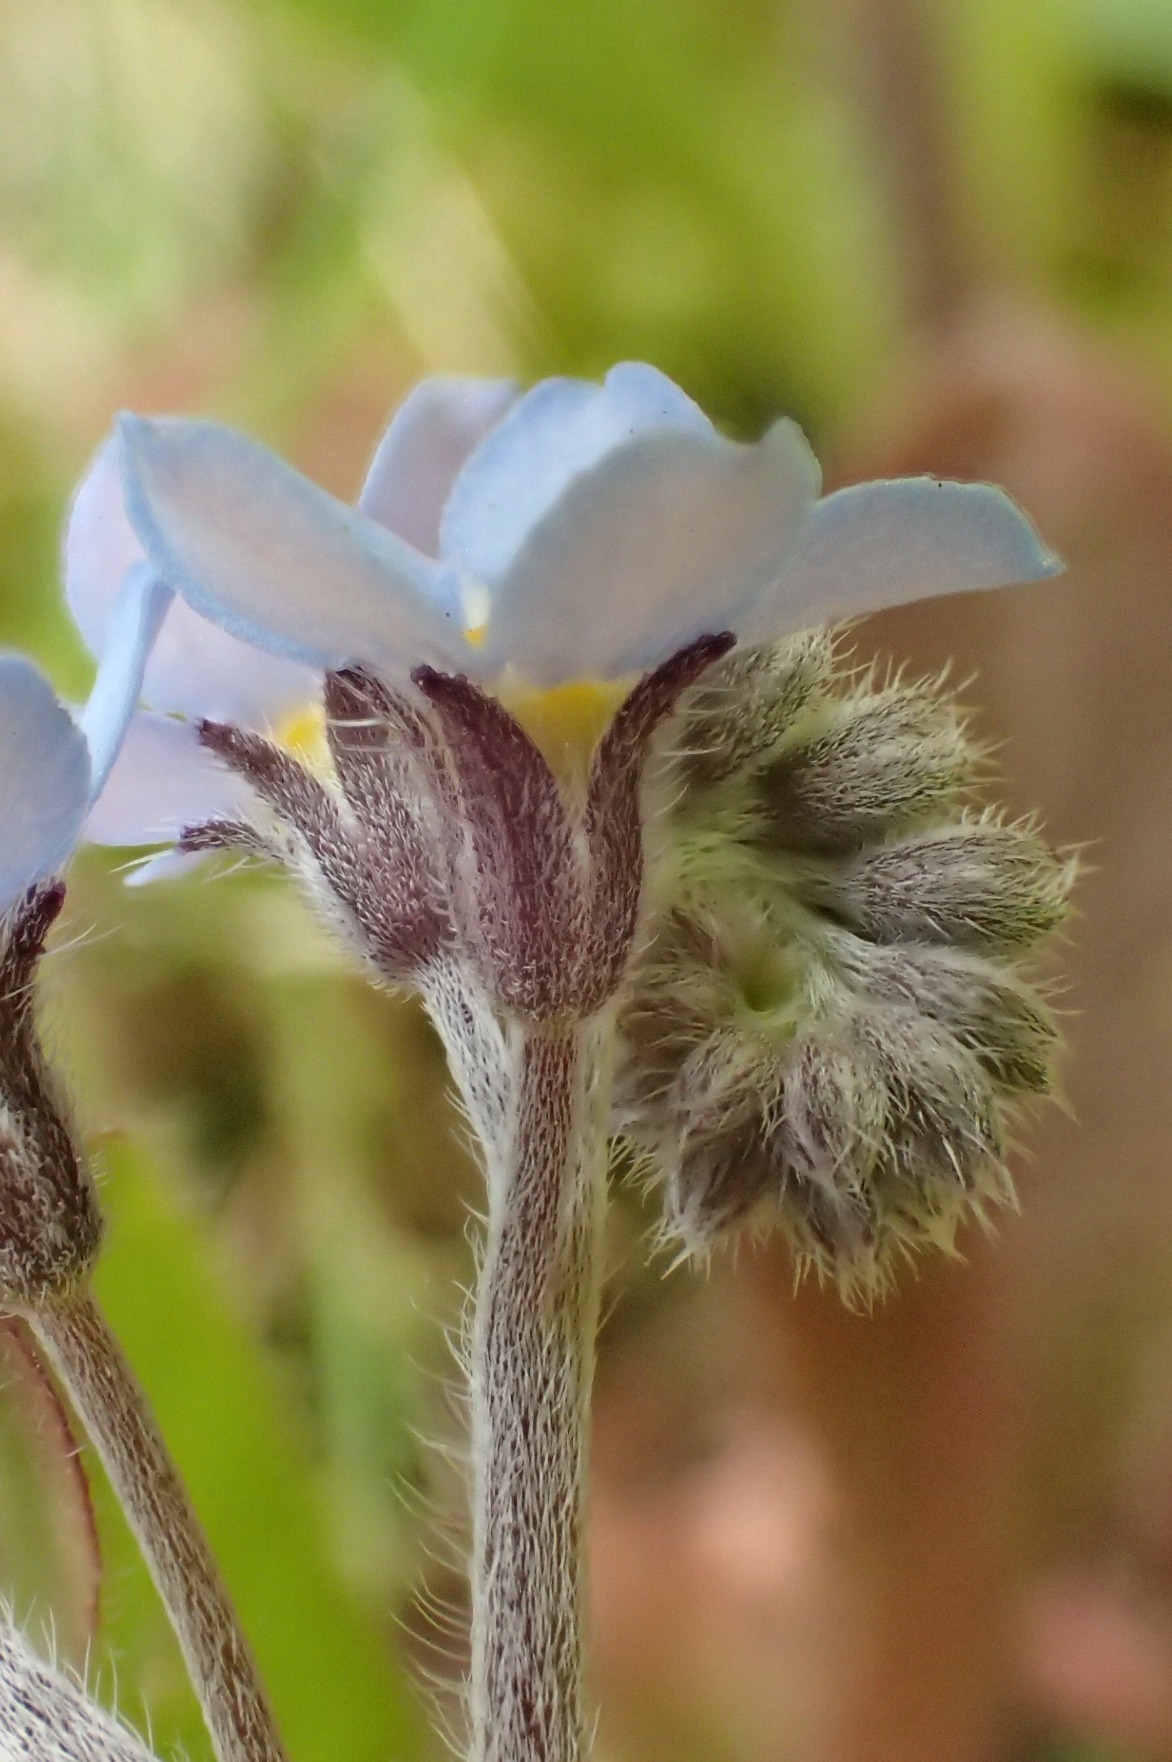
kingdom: Plantae
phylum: Tracheophyta
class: Magnoliopsida
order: Boraginales
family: Boraginaceae
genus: Myosotis
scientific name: Myosotis sylvatica
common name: Skov-forglemmigej
